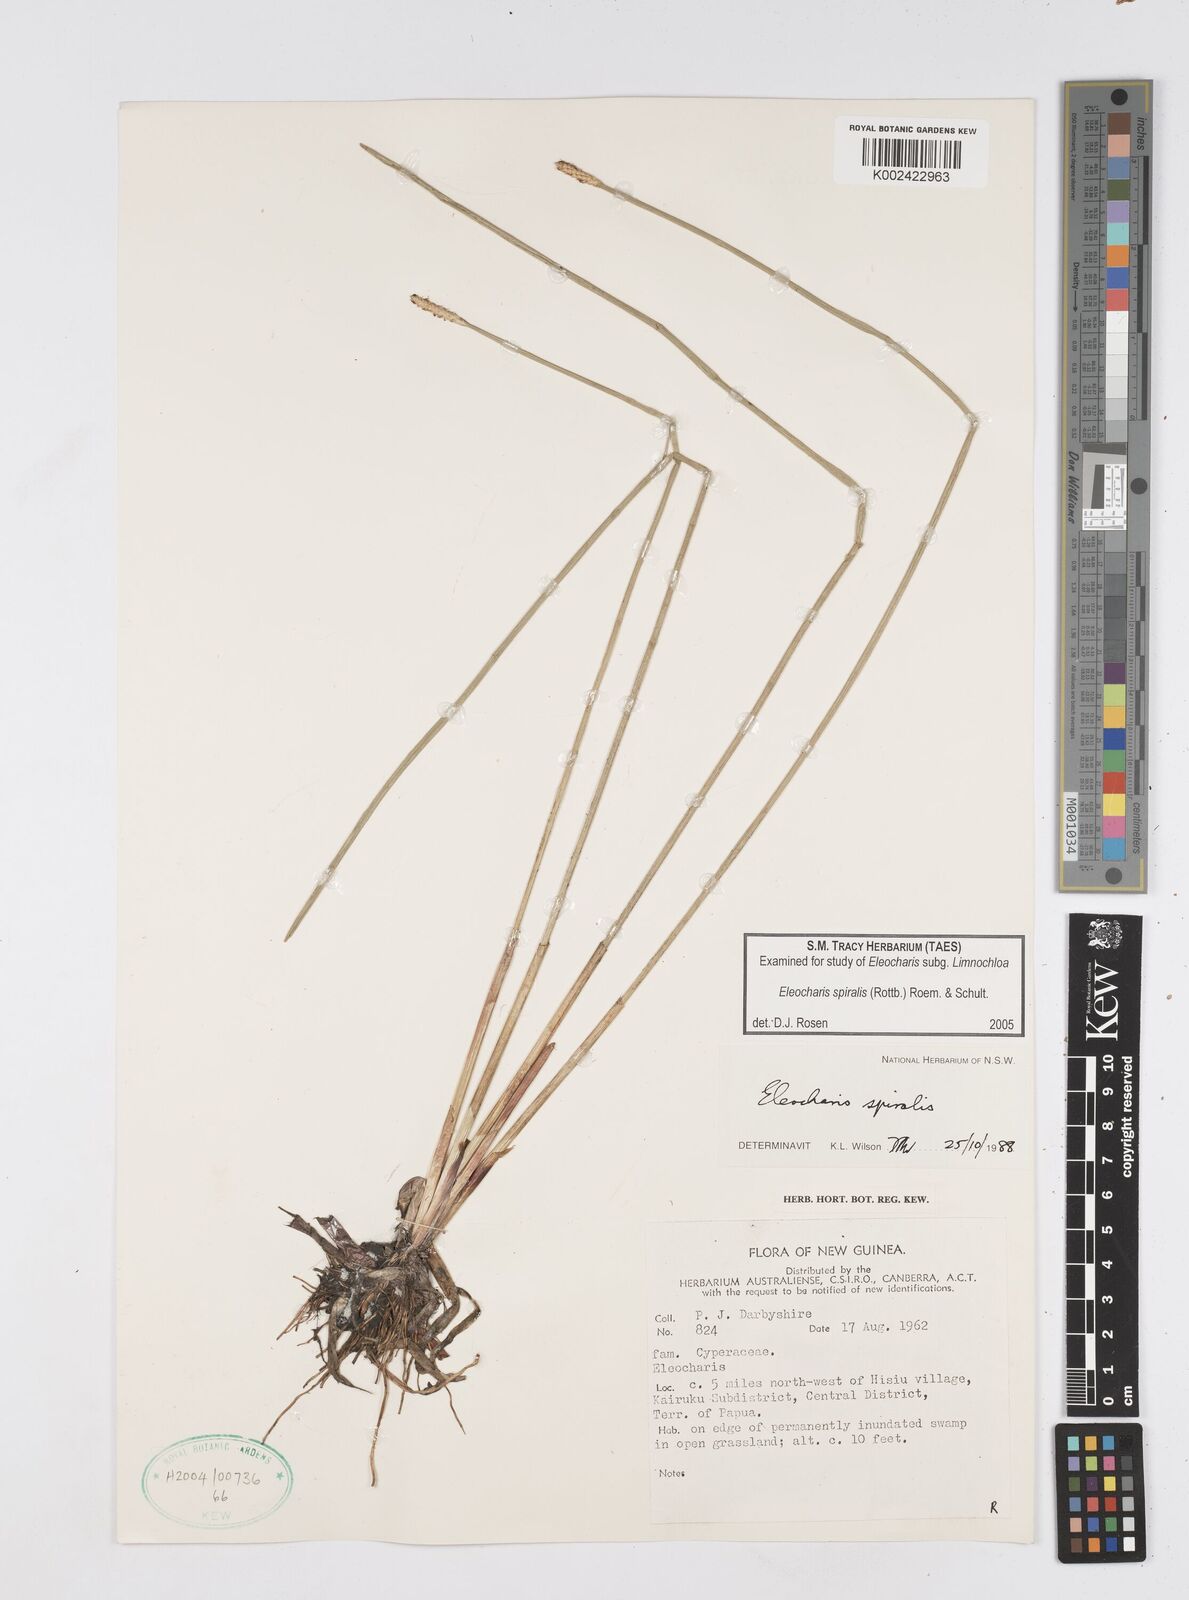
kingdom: Plantae
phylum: Tracheophyta
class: Liliopsida
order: Poales
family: Cyperaceae
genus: Eleocharis
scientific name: Eleocharis spiralis
